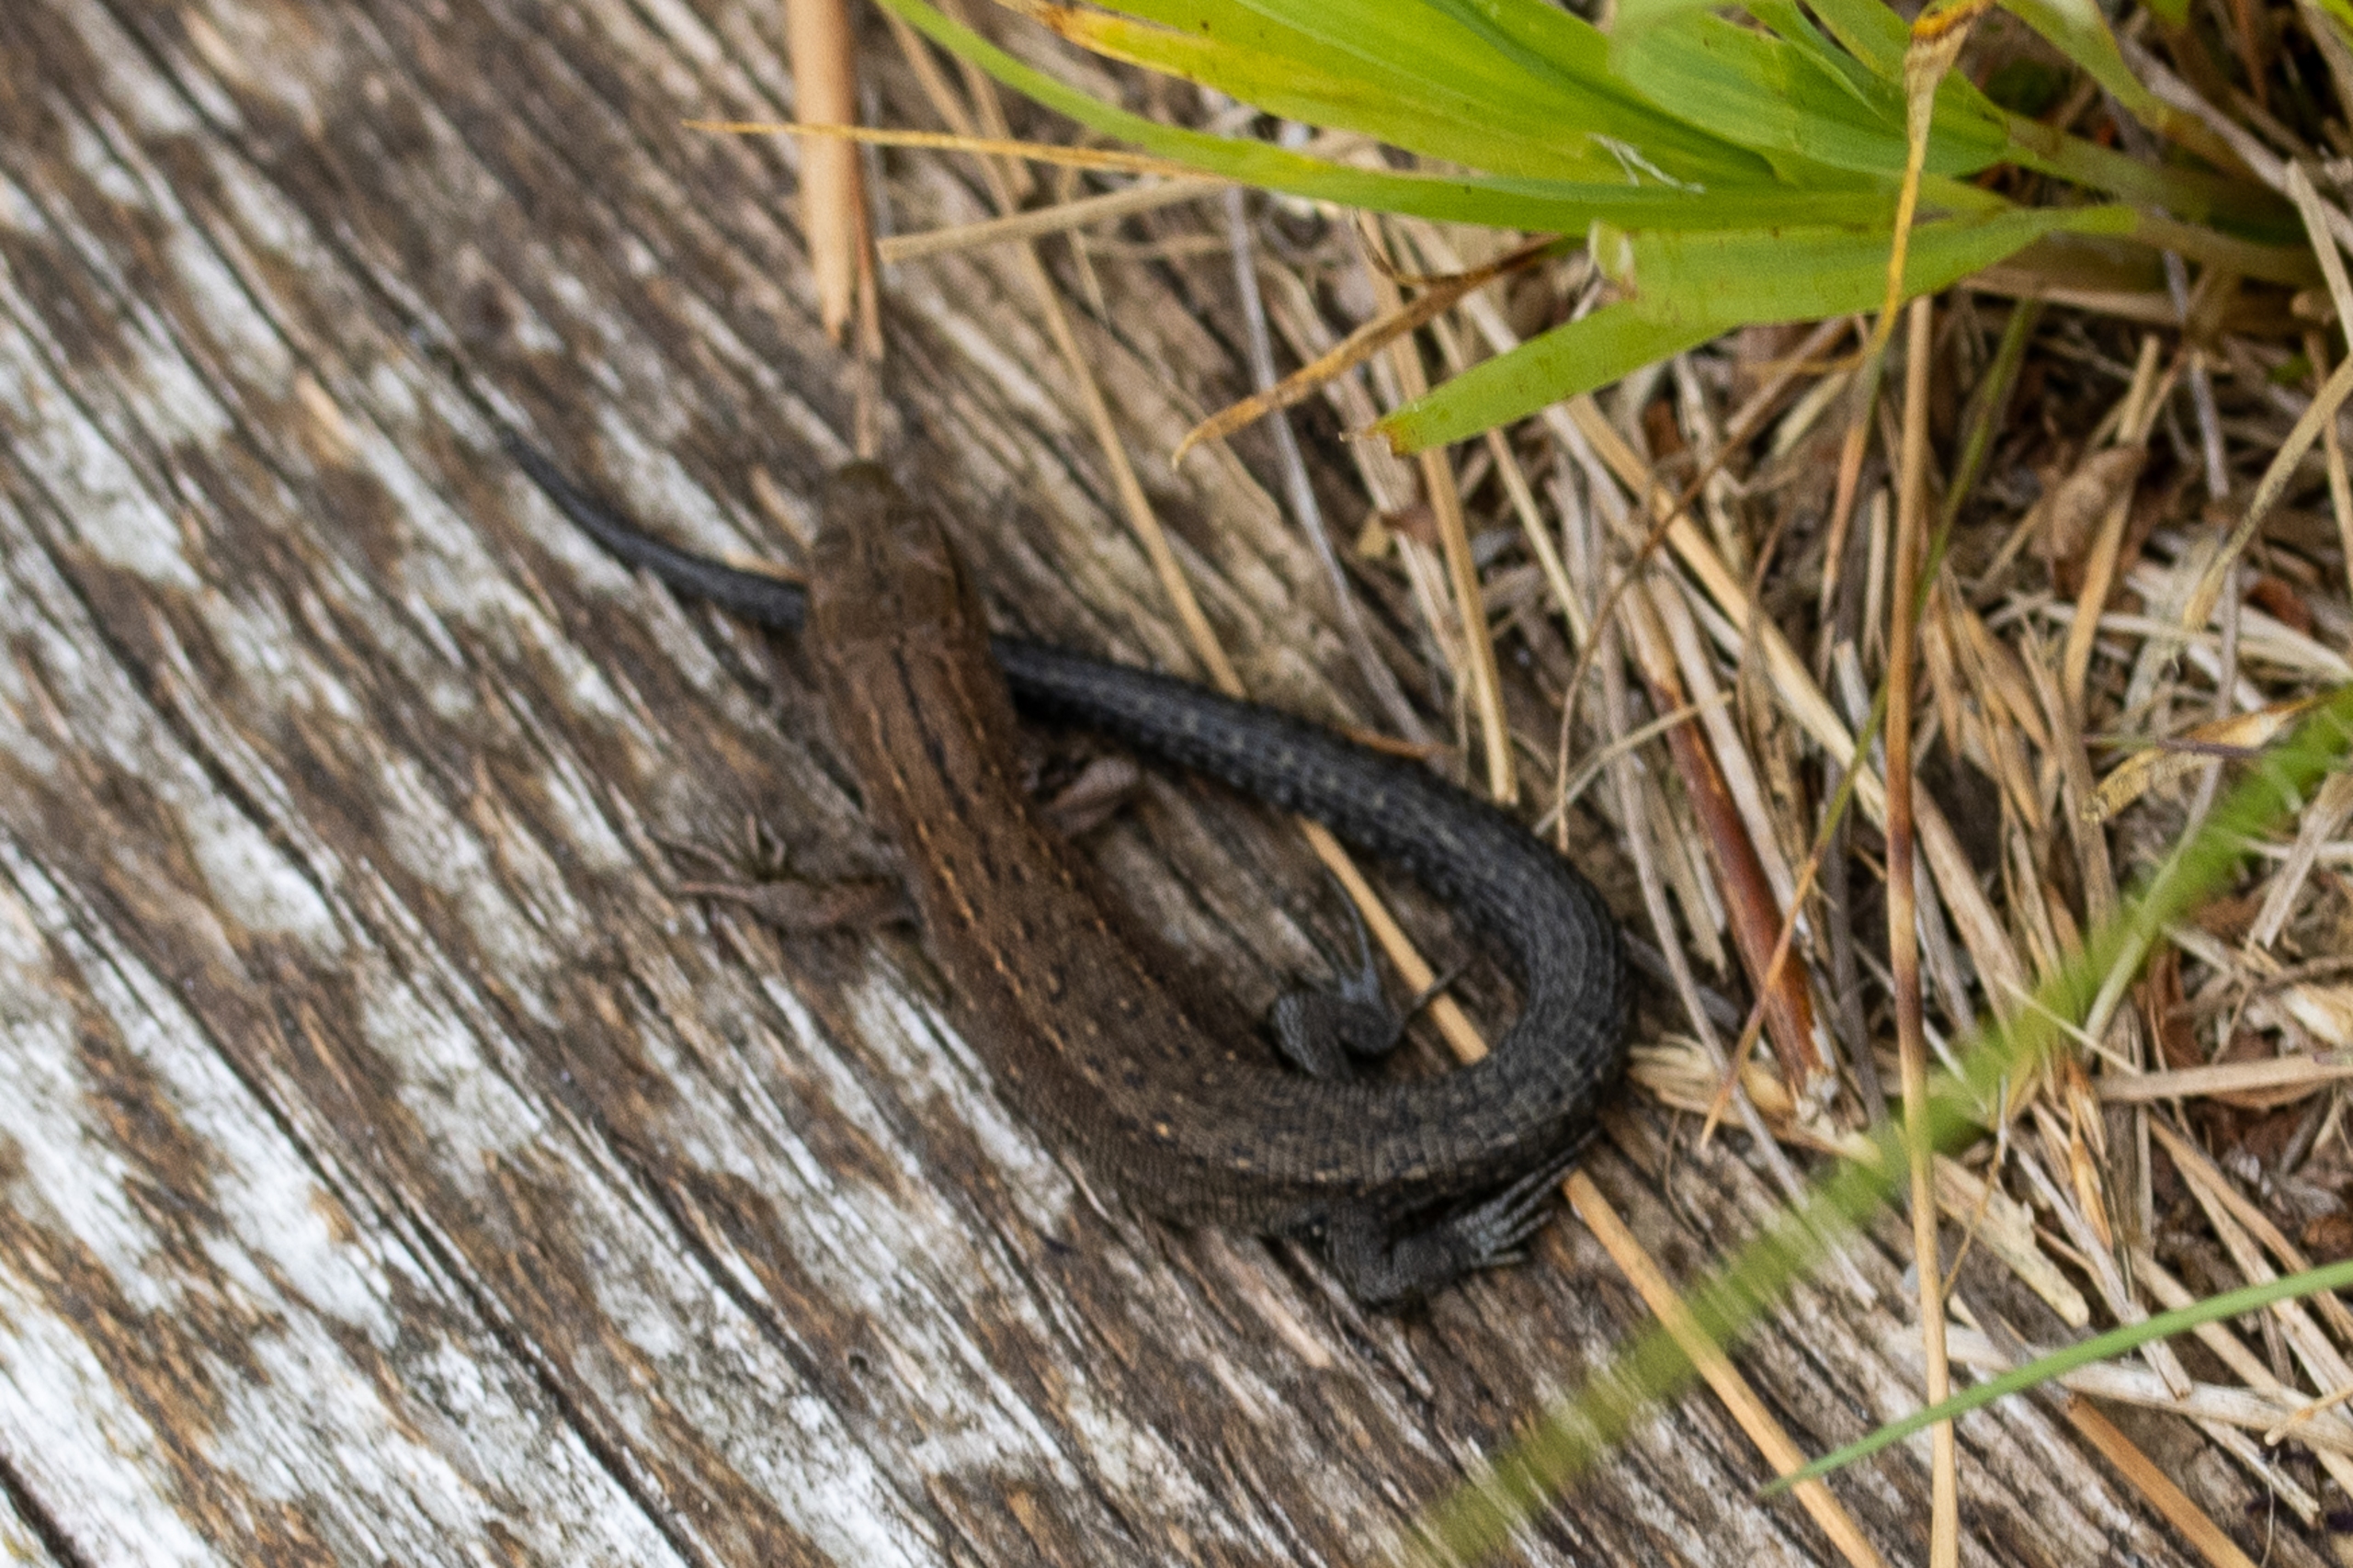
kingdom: Animalia
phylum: Chordata
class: Squamata
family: Lacertidae
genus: Zootoca
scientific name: Zootoca vivipara
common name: Skovfirben
